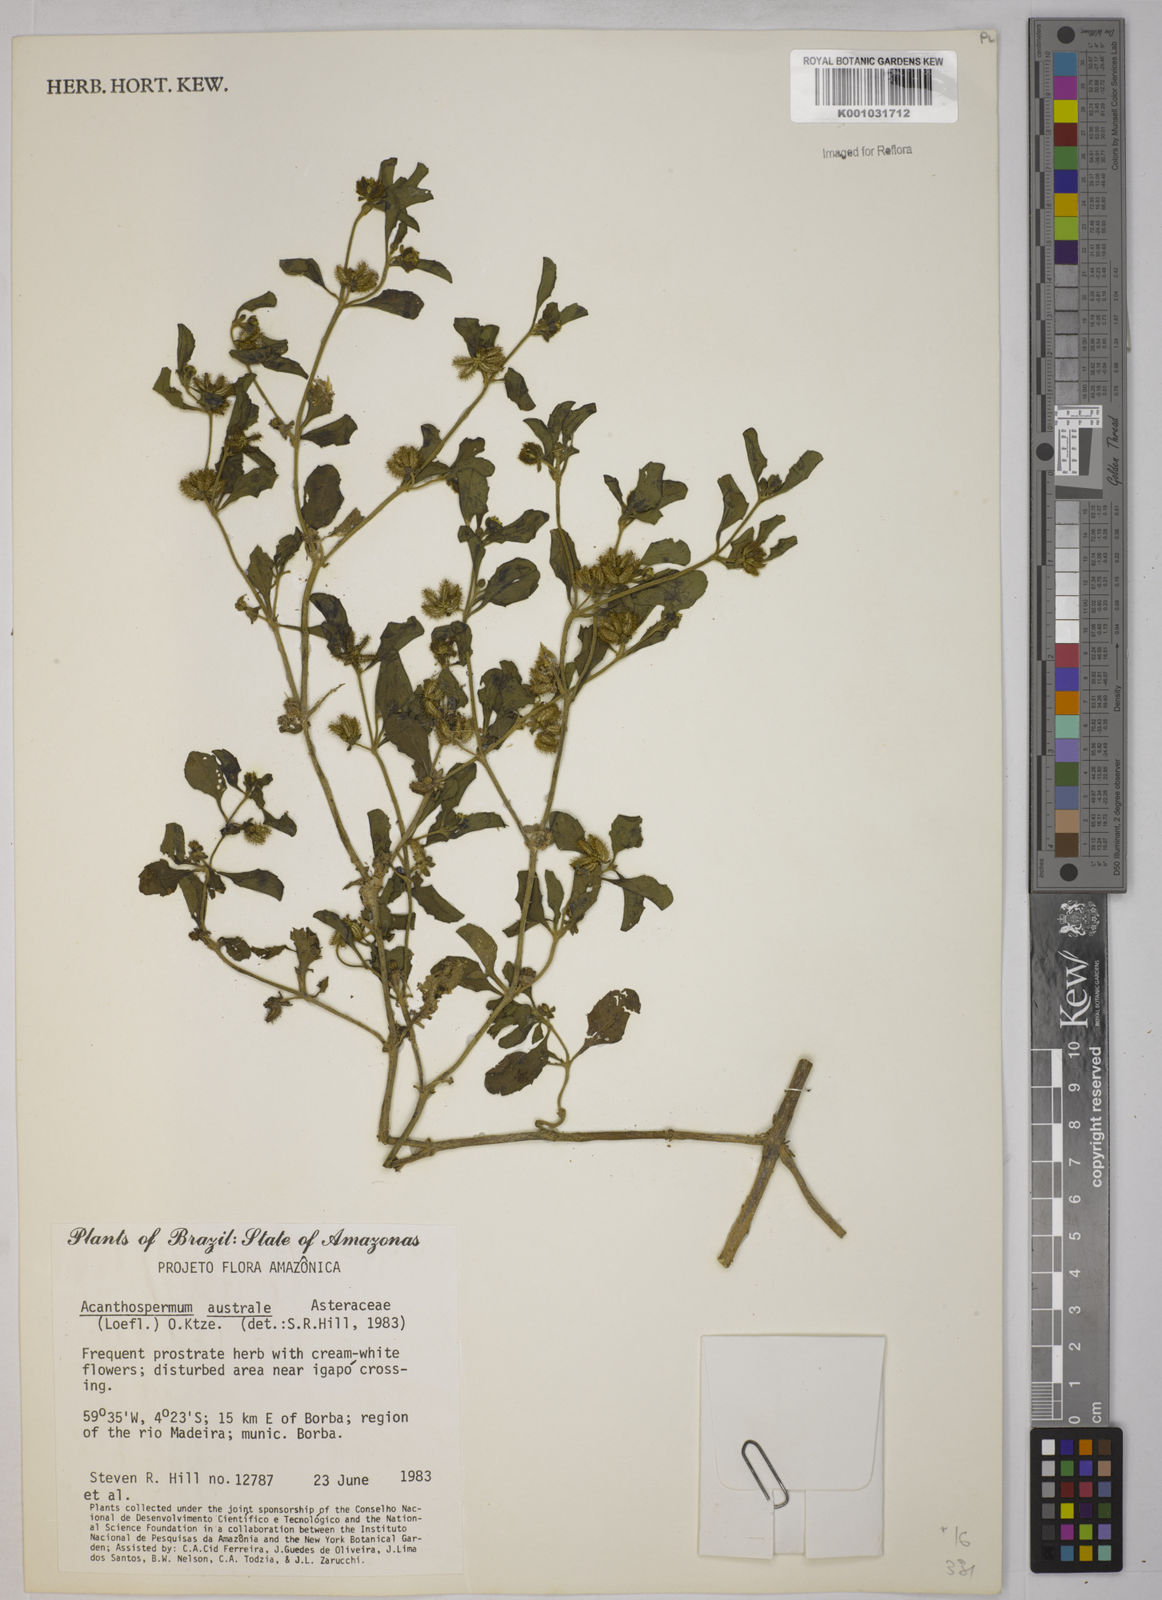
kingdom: Plantae
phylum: Tracheophyta
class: Magnoliopsida
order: Asterales
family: Asteraceae
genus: Acanthospermum
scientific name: Acanthospermum australe
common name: Paraguayan starbur
